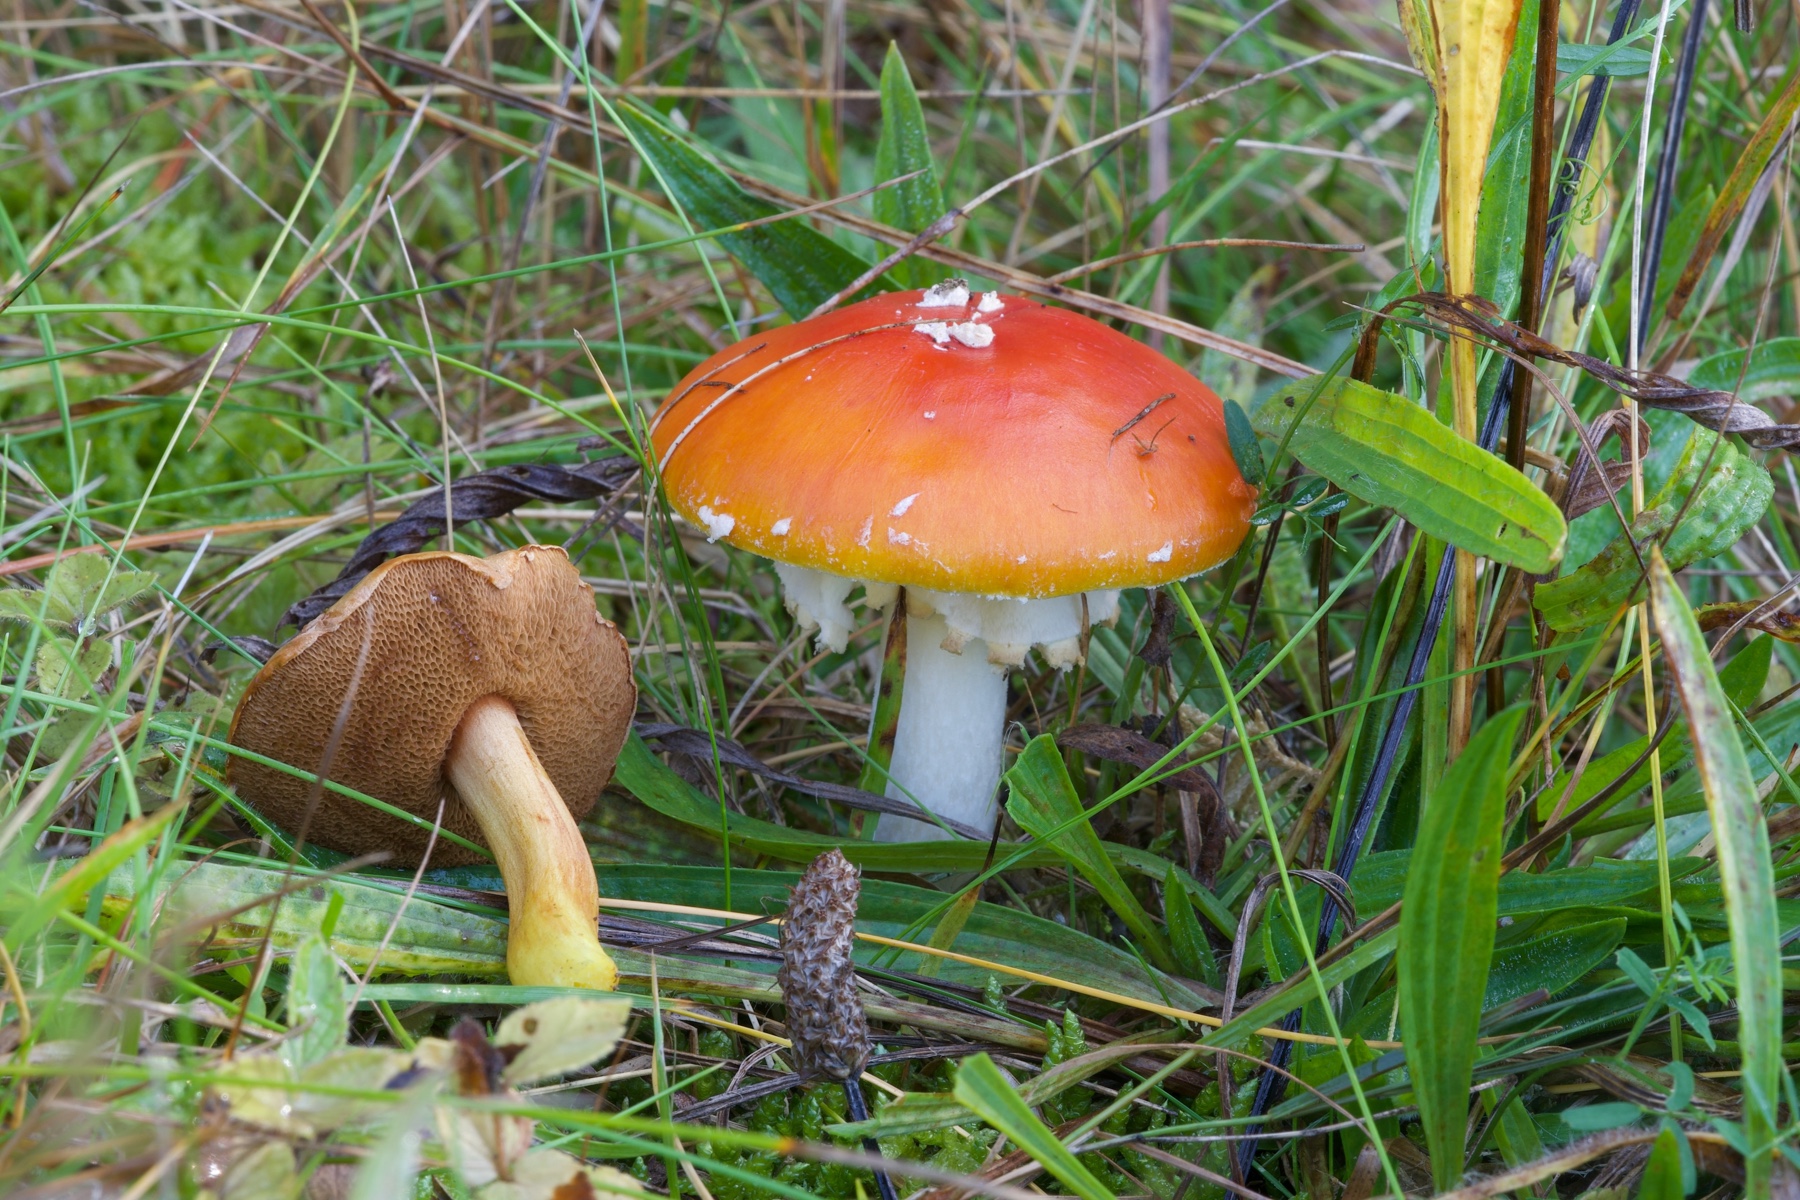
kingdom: Fungi
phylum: Basidiomycota
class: Agaricomycetes
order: Agaricales
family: Amanitaceae
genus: Amanita
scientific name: Amanita muscaria
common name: rød fluesvamp
